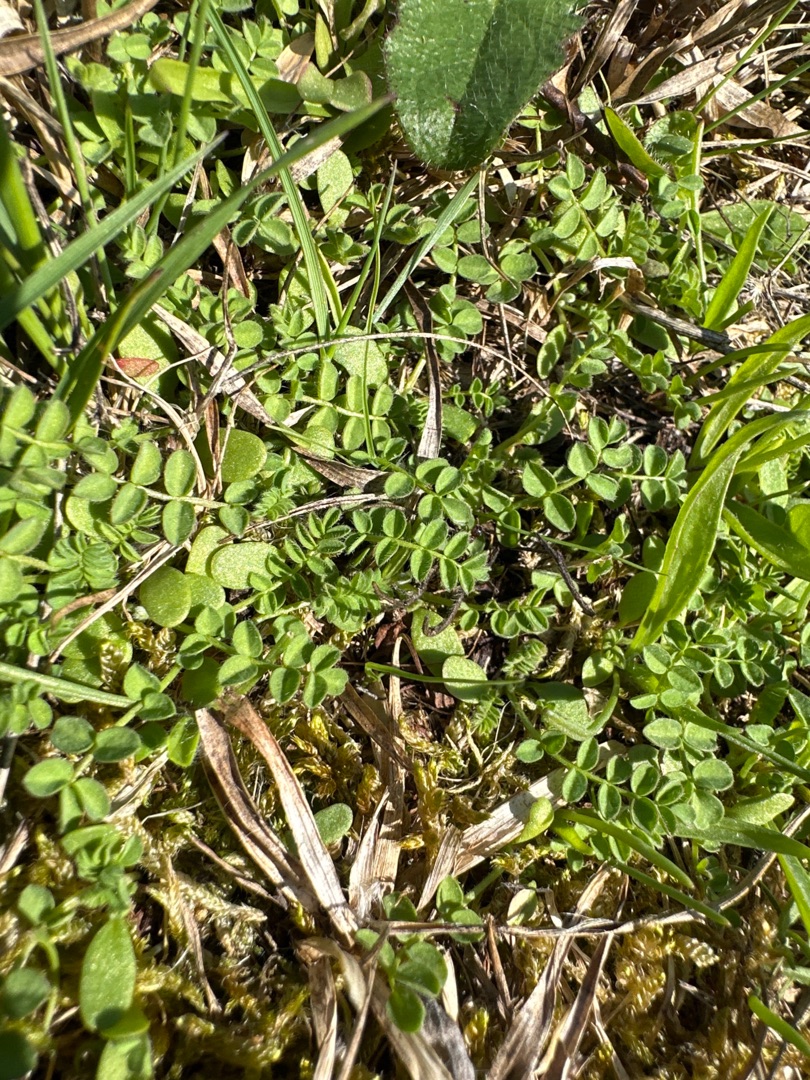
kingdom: Plantae
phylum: Tracheophyta
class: Magnoliopsida
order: Fabales
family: Fabaceae
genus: Ornithopus
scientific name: Ornithopus perpusillus
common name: Liden fugleklo
